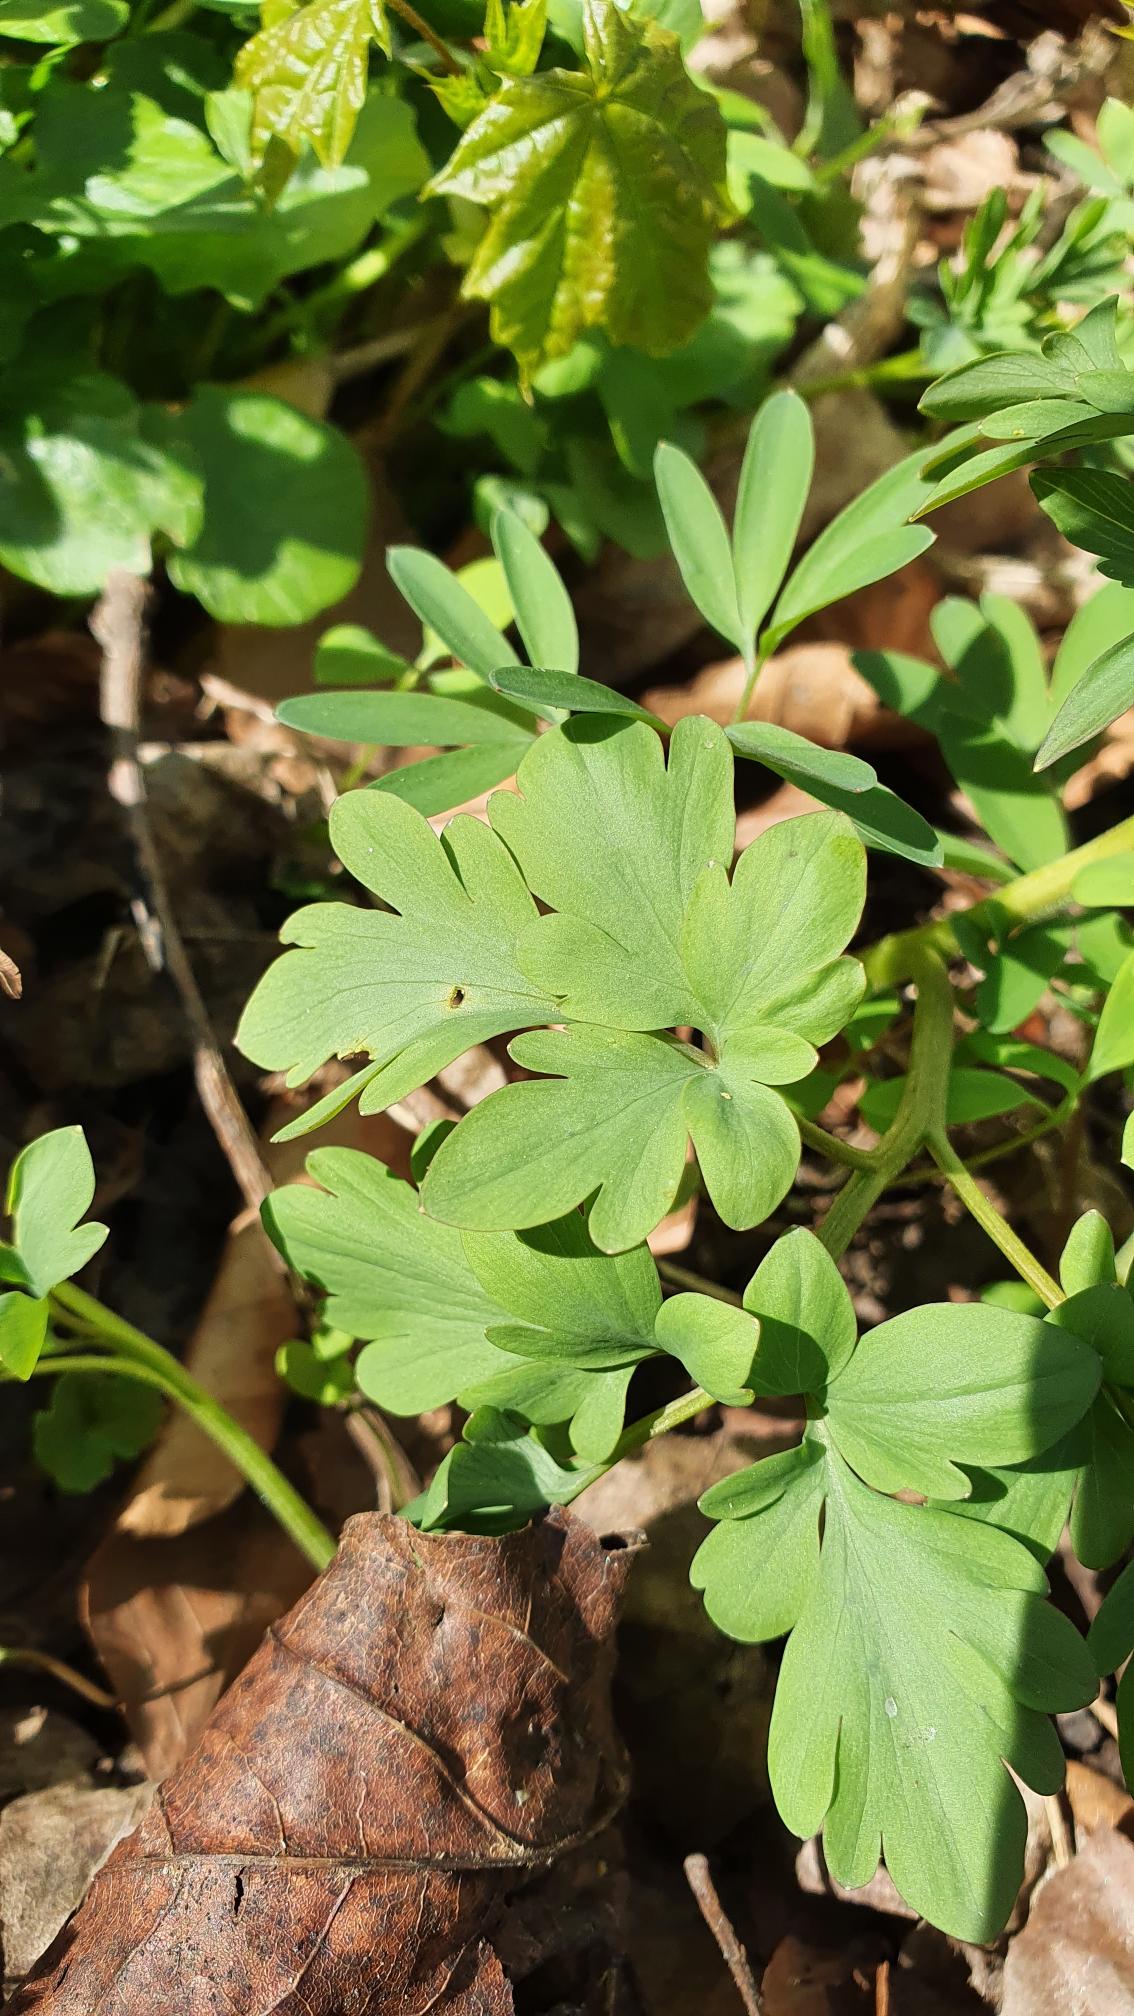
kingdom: Plantae
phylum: Tracheophyta
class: Magnoliopsida
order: Ranunculales
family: Papaveraceae
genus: Corydalis
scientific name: Corydalis cava
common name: Hulrodet lærkespore
